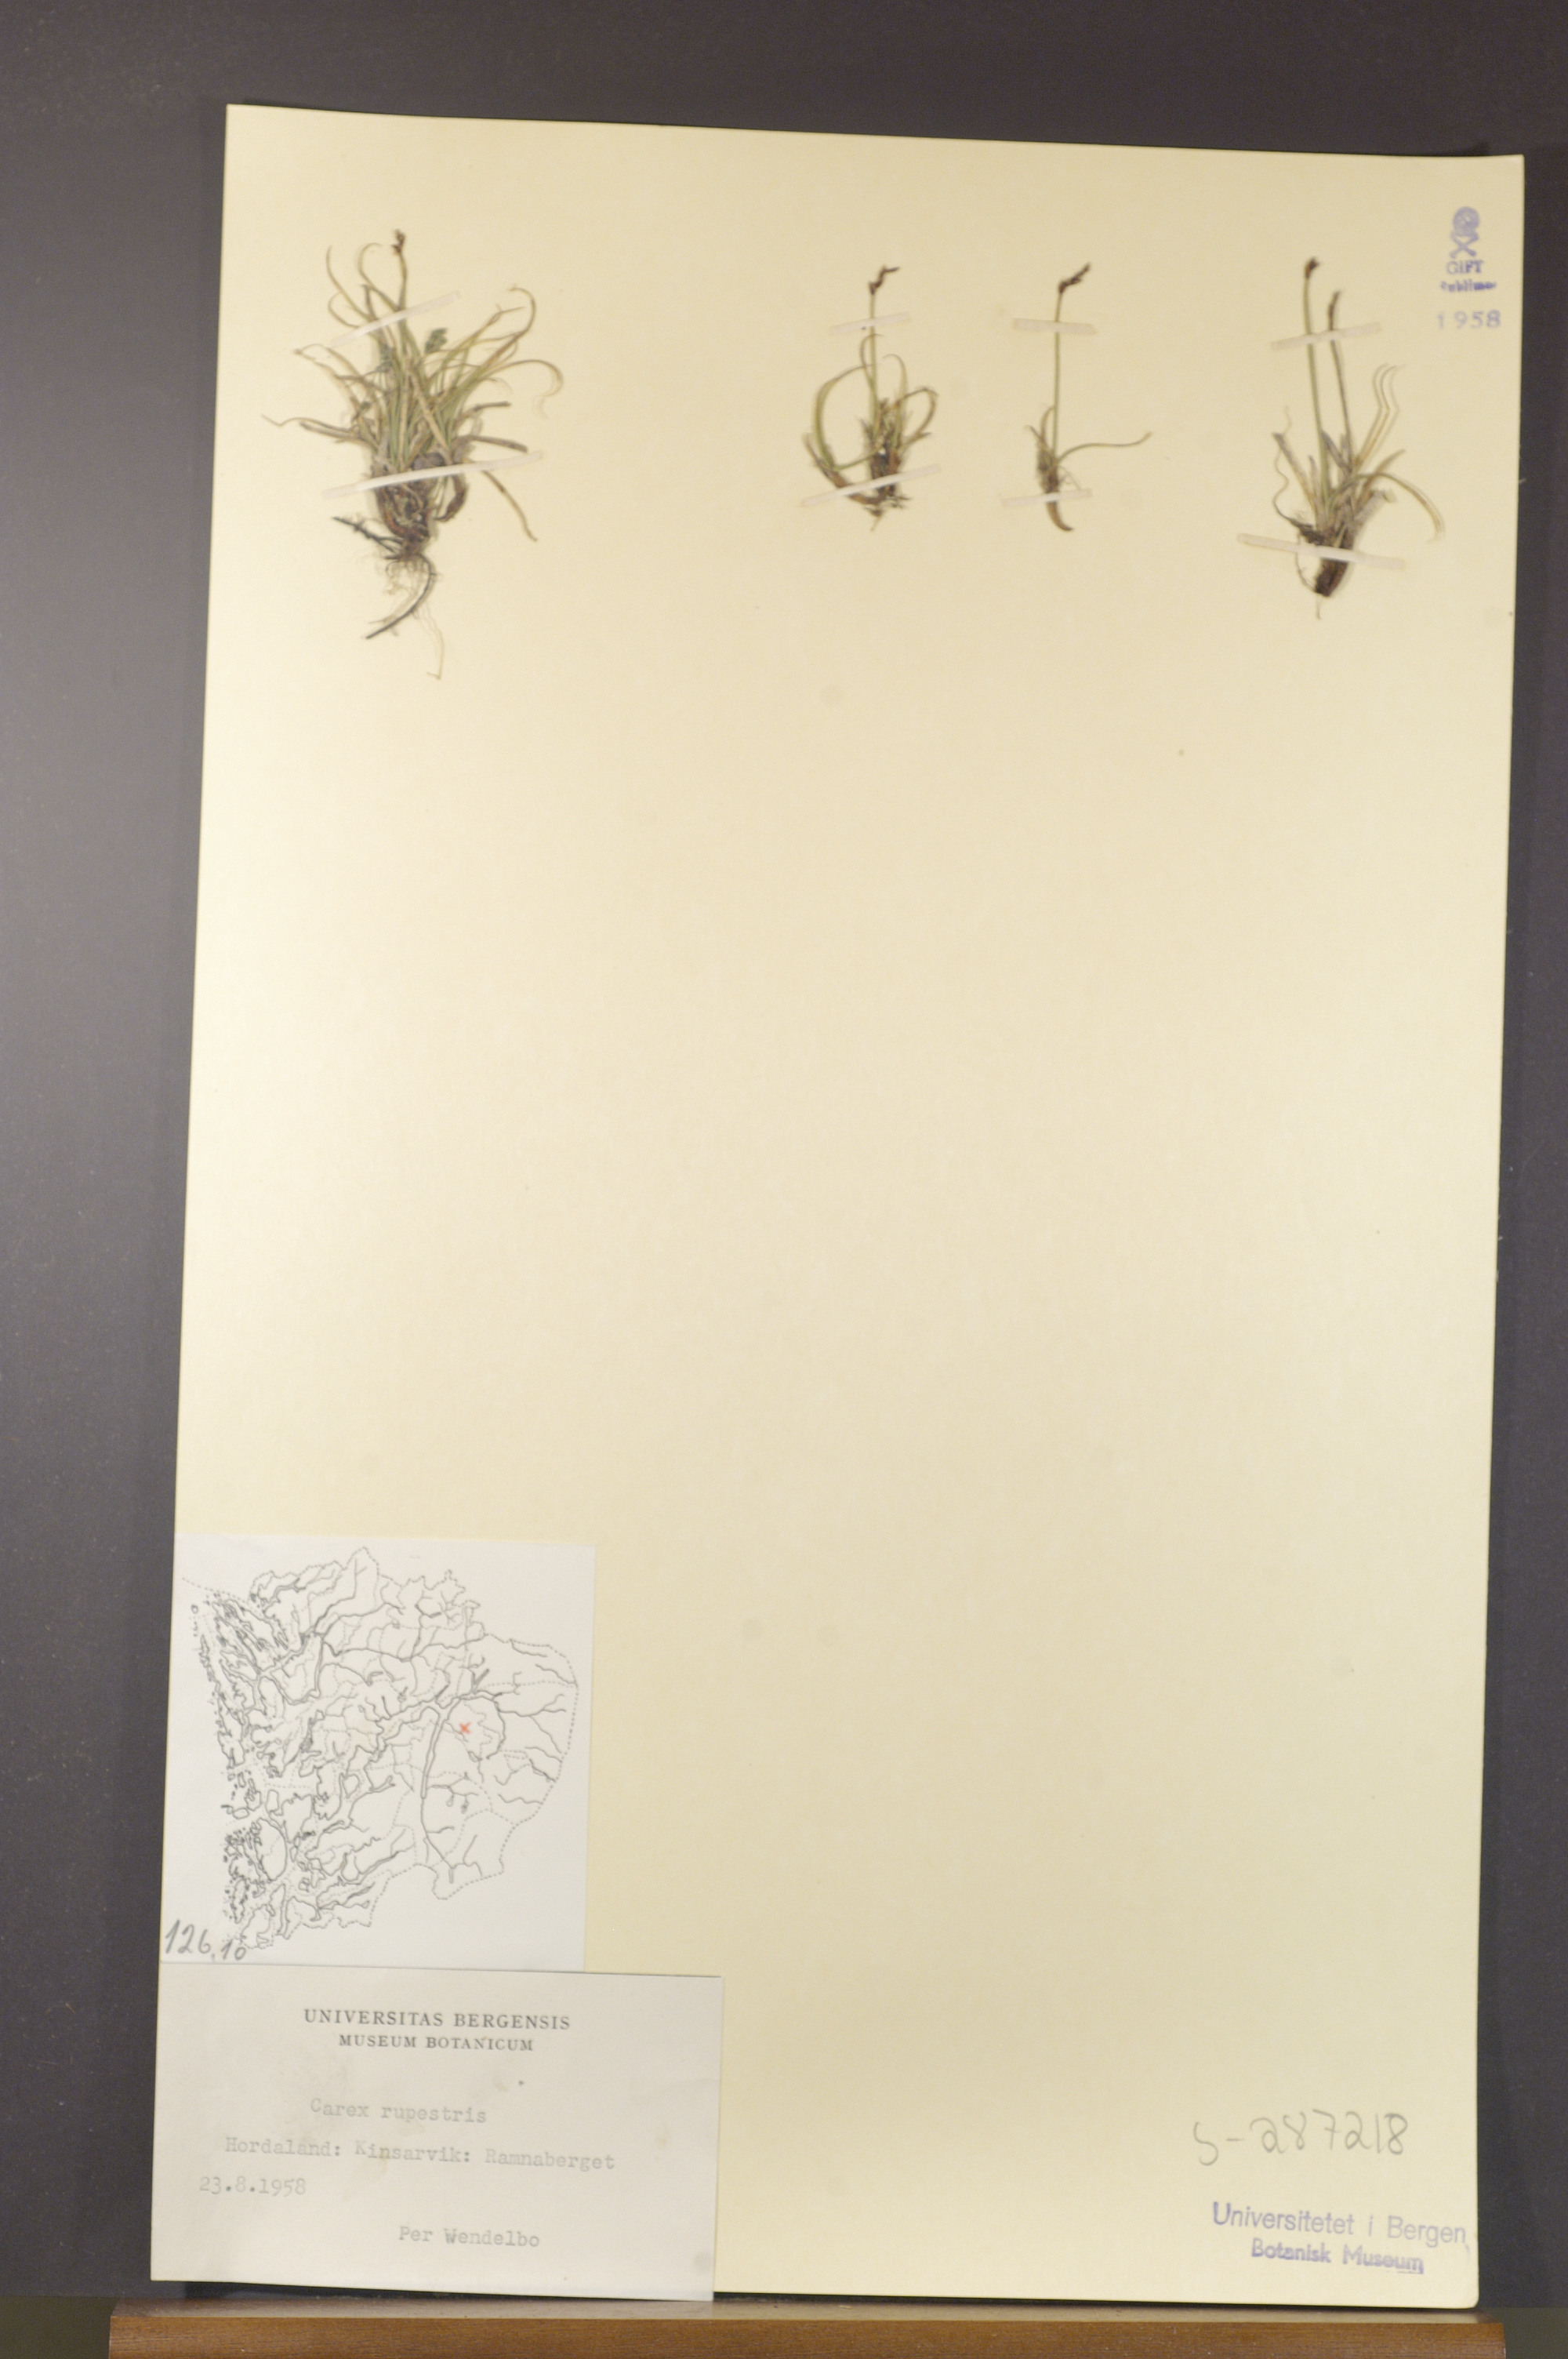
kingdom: Plantae
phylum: Tracheophyta
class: Liliopsida
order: Poales
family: Cyperaceae
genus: Carex
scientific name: Carex rupestris
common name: Rock sedge
